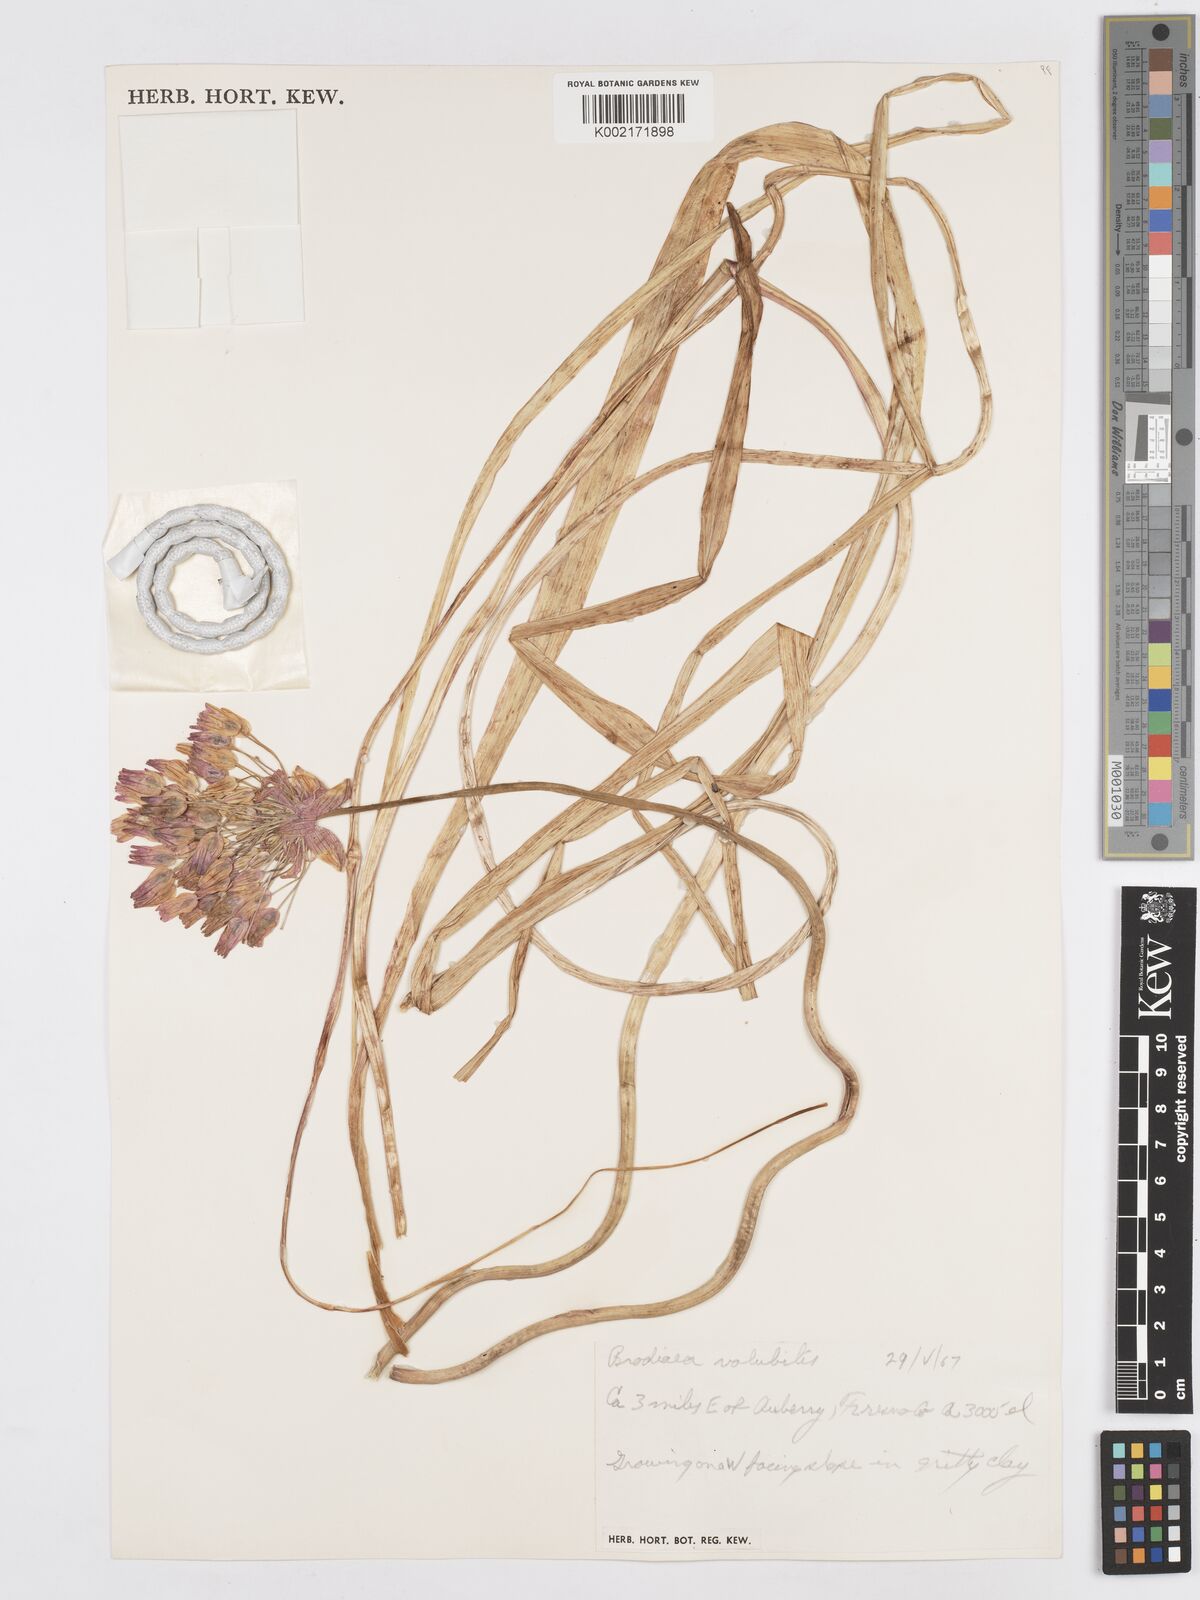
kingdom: Plantae
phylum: Tracheophyta
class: Liliopsida
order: Asparagales
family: Asparagaceae
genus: Dichelostemma
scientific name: Dichelostemma volubile
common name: Trining brodiaea
